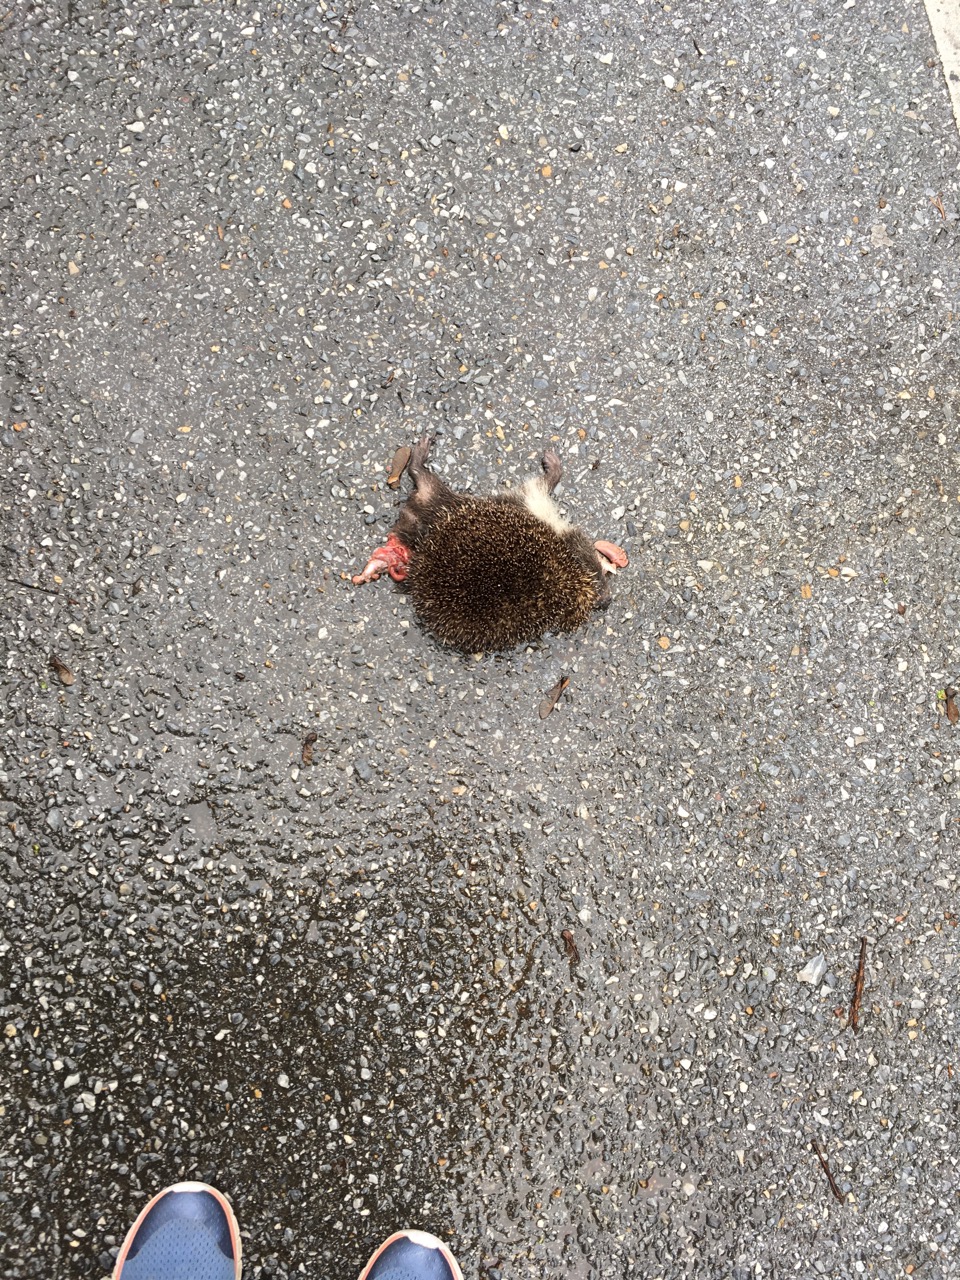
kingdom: Animalia
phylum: Chordata
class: Mammalia
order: Erinaceomorpha
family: Erinaceidae
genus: Erinaceus
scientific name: Erinaceus
